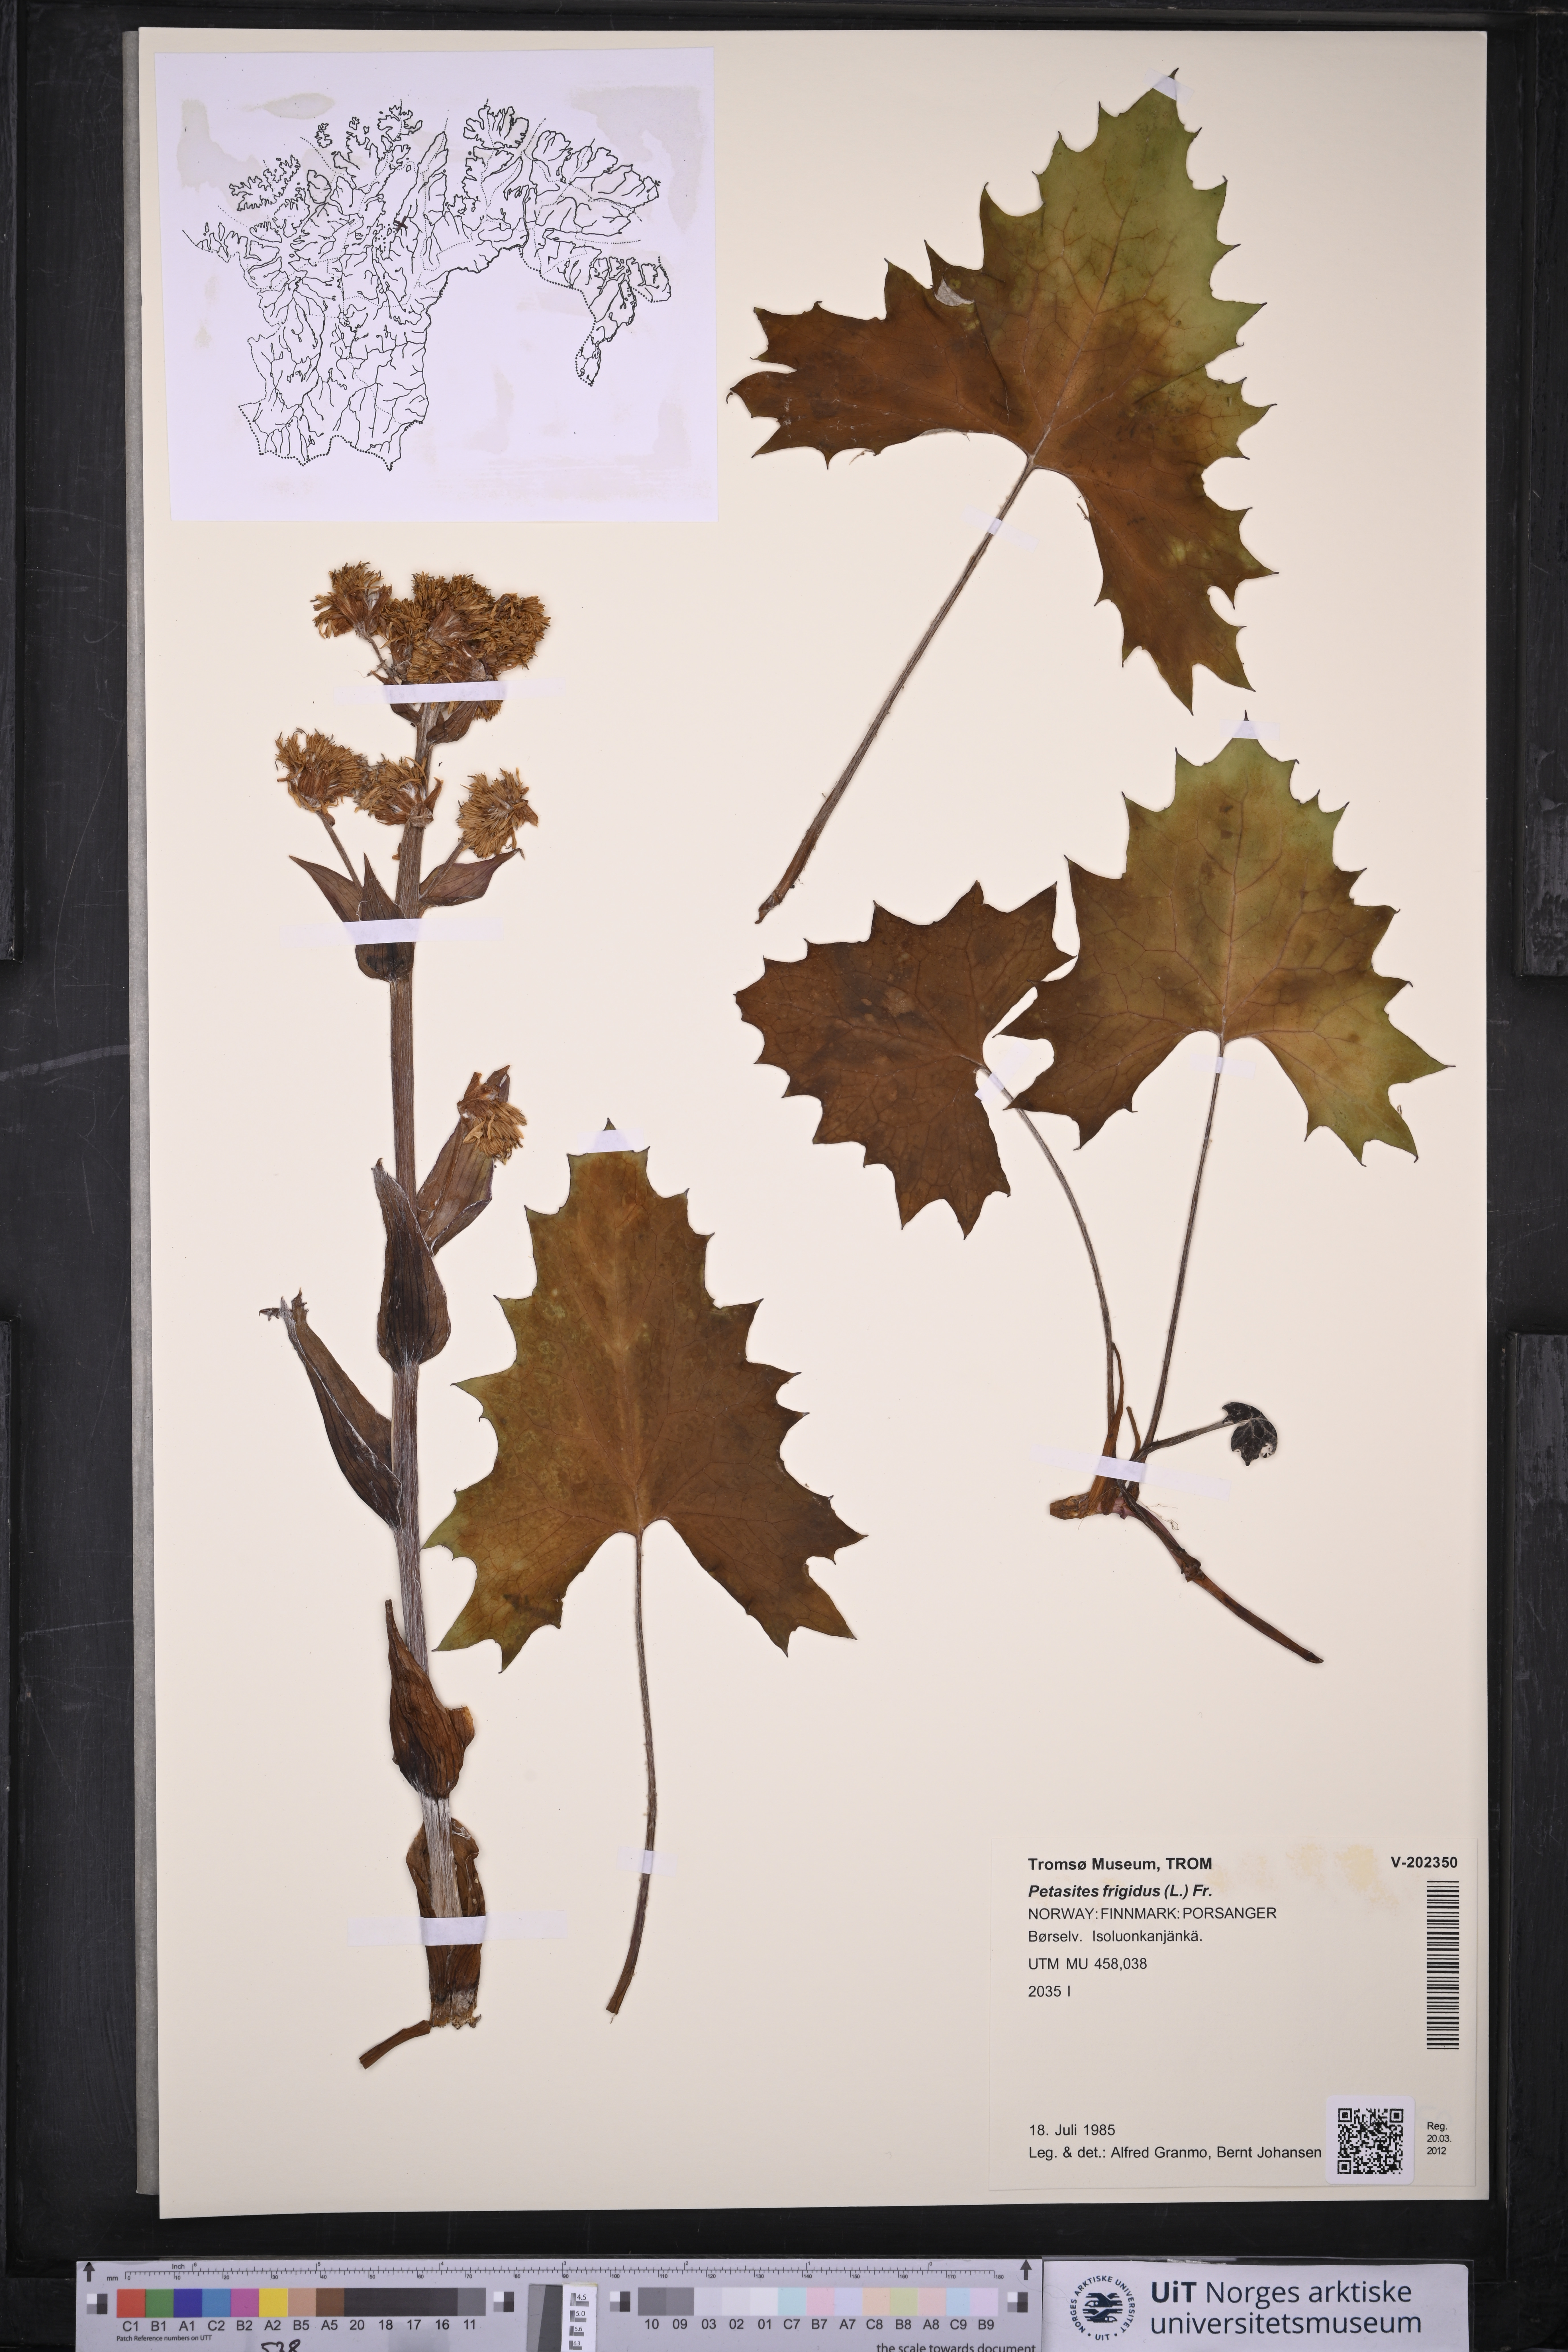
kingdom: Plantae
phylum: Tracheophyta
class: Magnoliopsida
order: Asterales
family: Asteraceae
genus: Petasites
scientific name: Petasites frigidus
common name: Arctic butterbur
